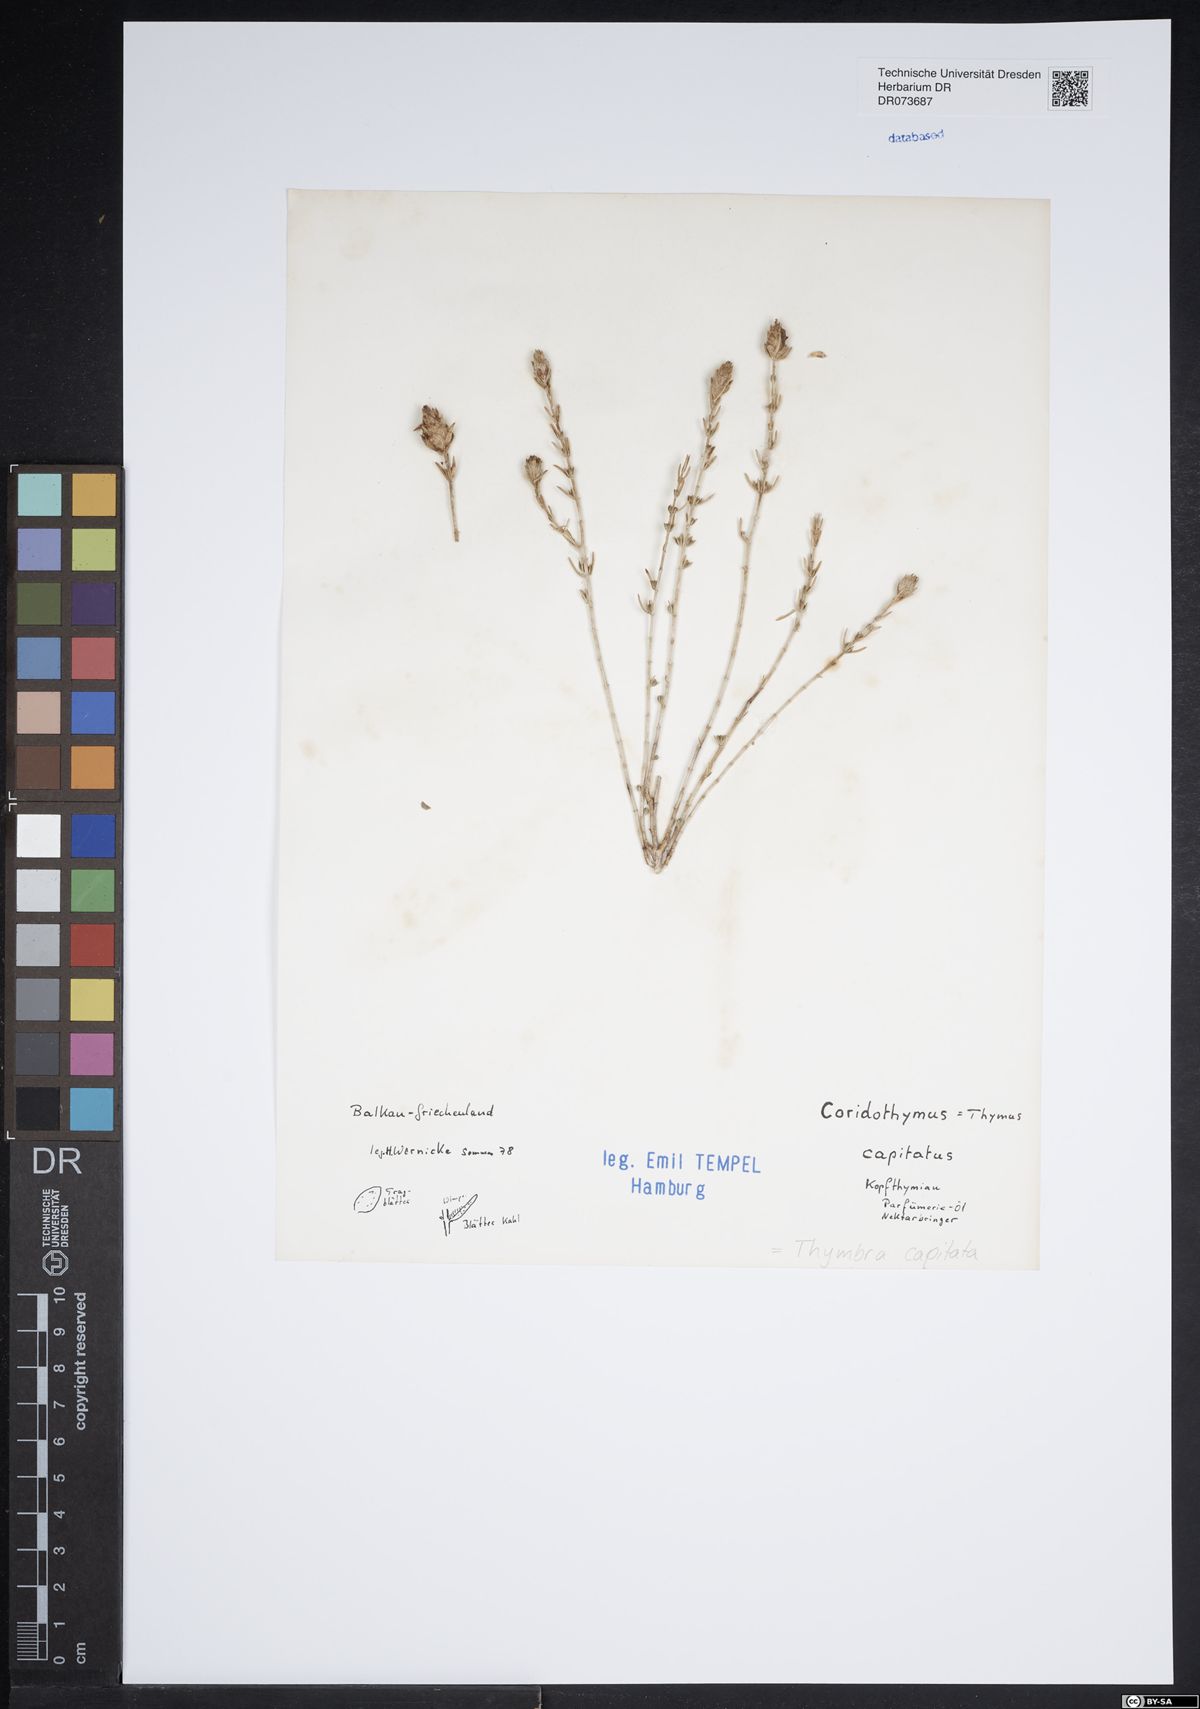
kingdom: Plantae
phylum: Tracheophyta
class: Magnoliopsida
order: Lamiales
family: Lamiaceae
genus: Thymbra
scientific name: Thymbra capitata
